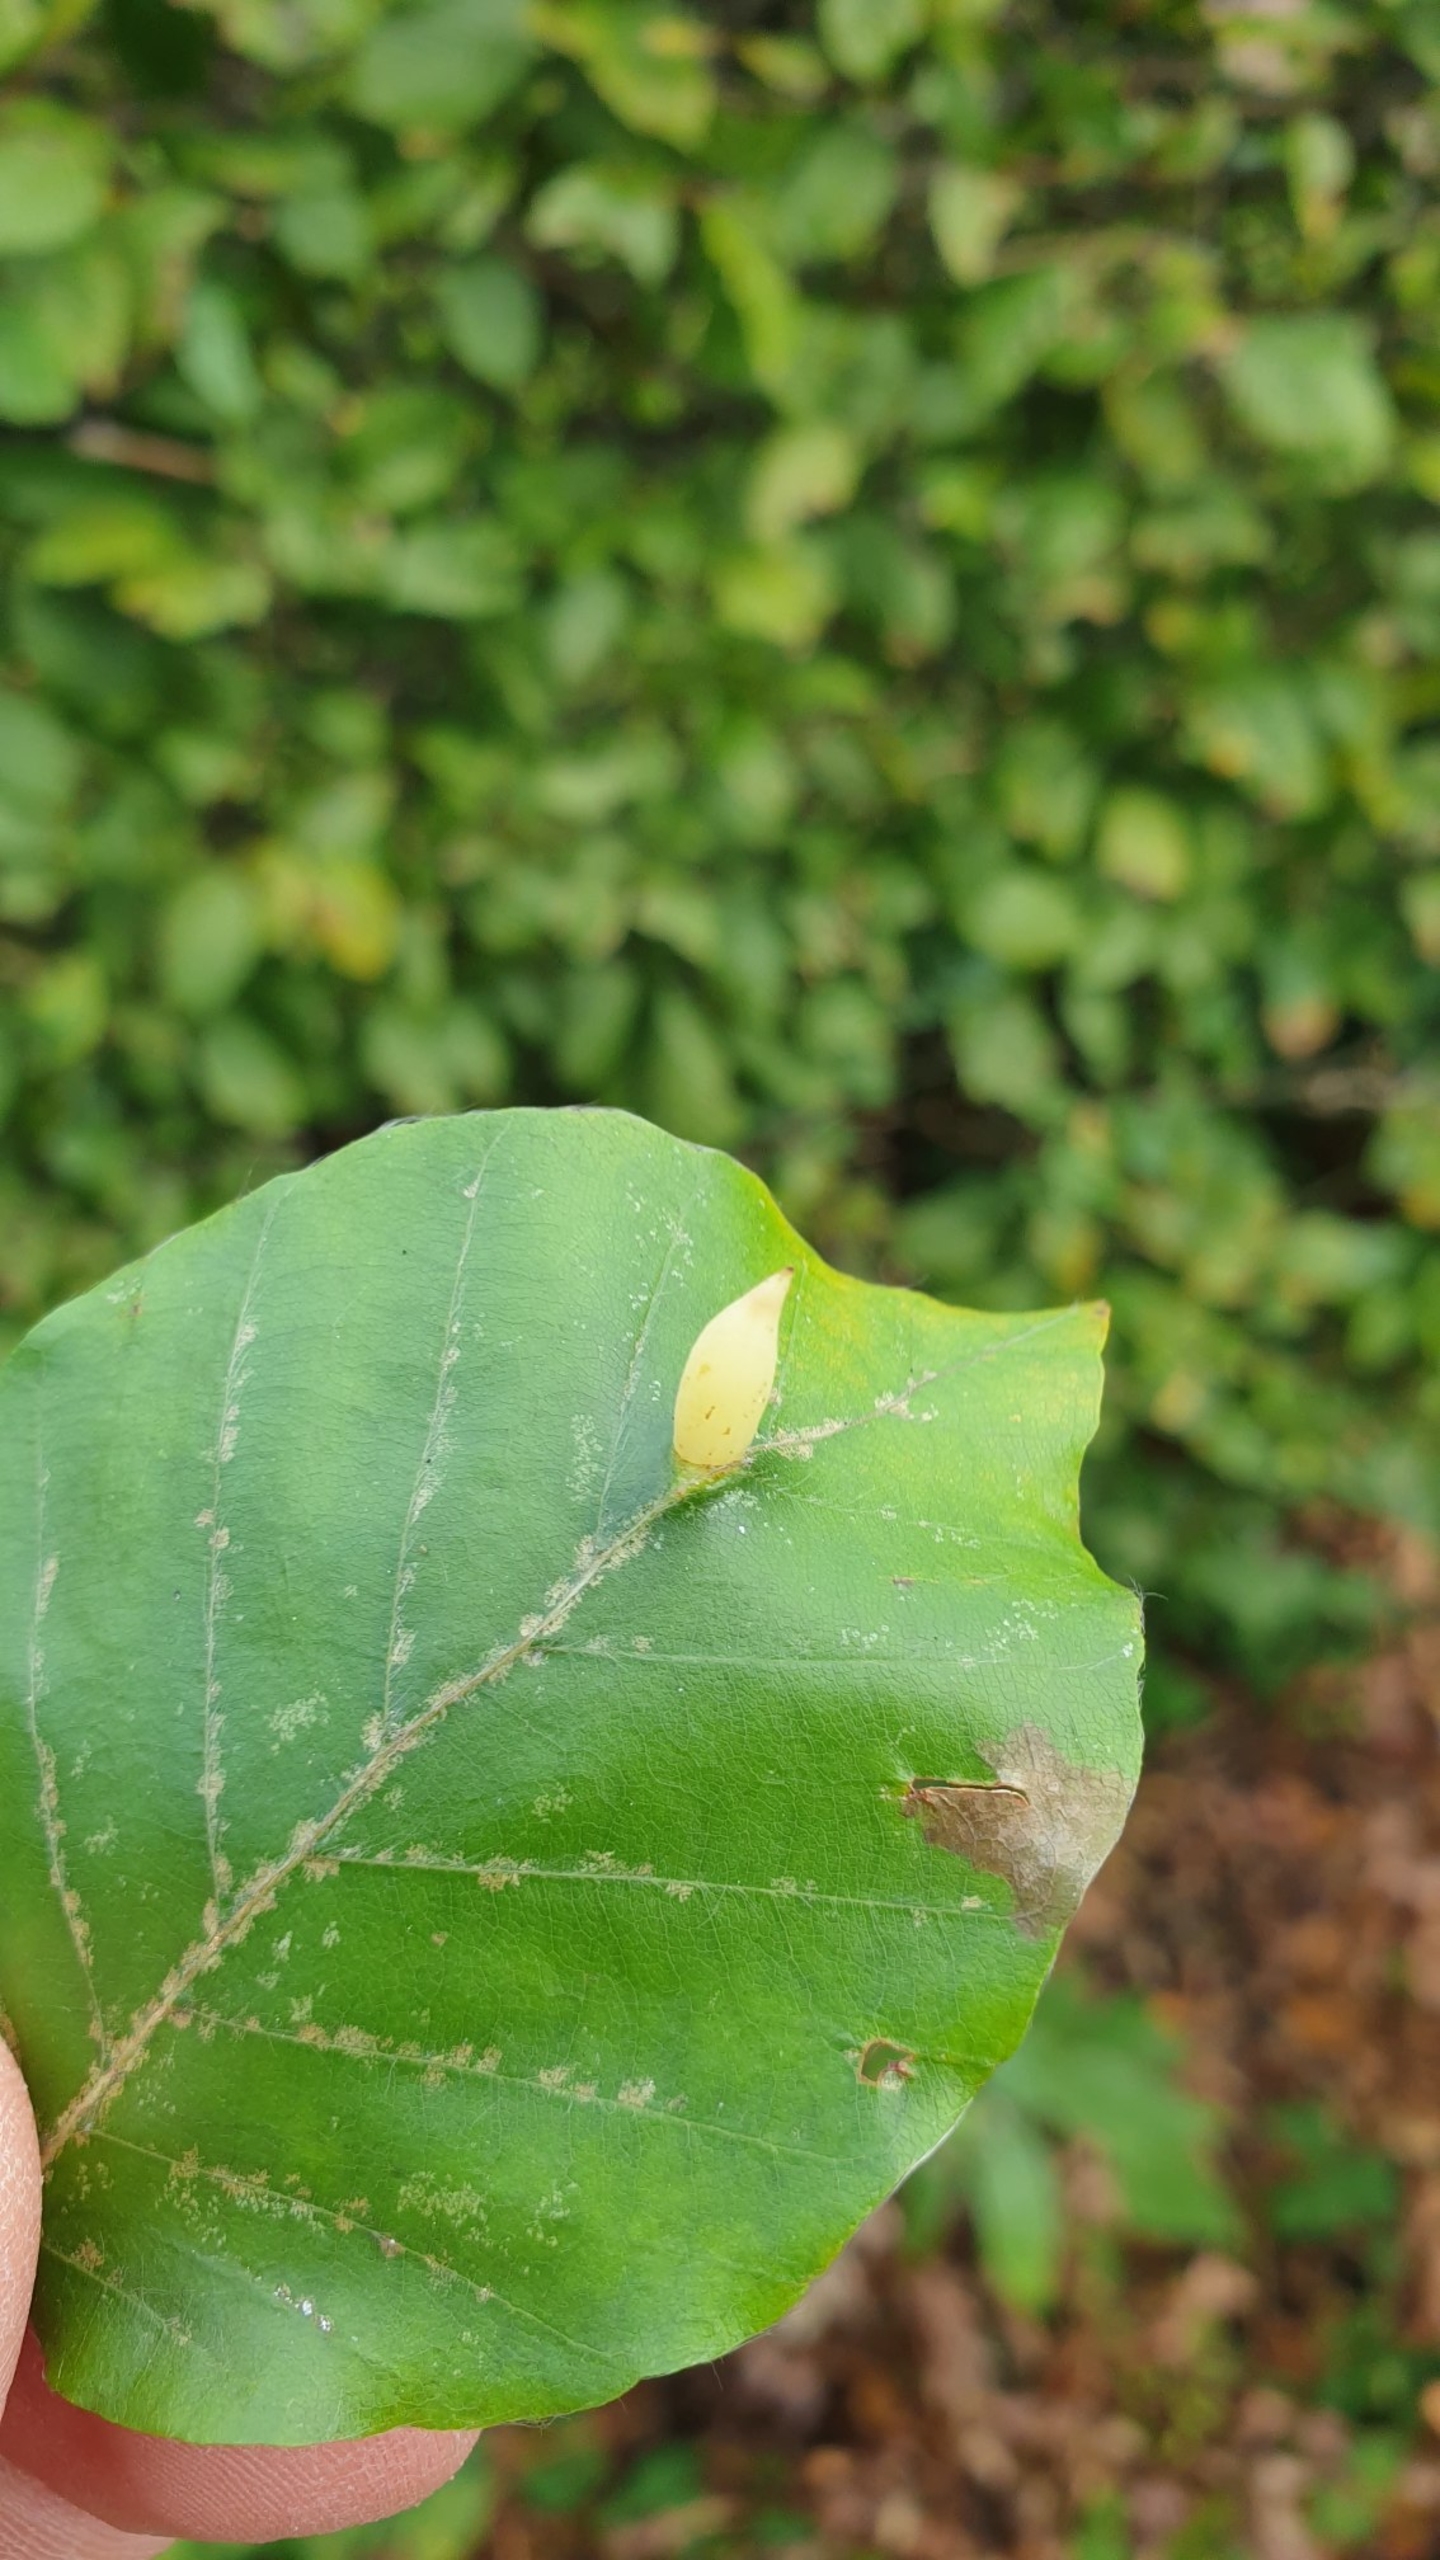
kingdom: Animalia
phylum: Arthropoda
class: Insecta
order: Diptera
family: Cecidomyiidae
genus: Mikiola
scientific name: Mikiola fagi
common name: Bøgegalmyg
